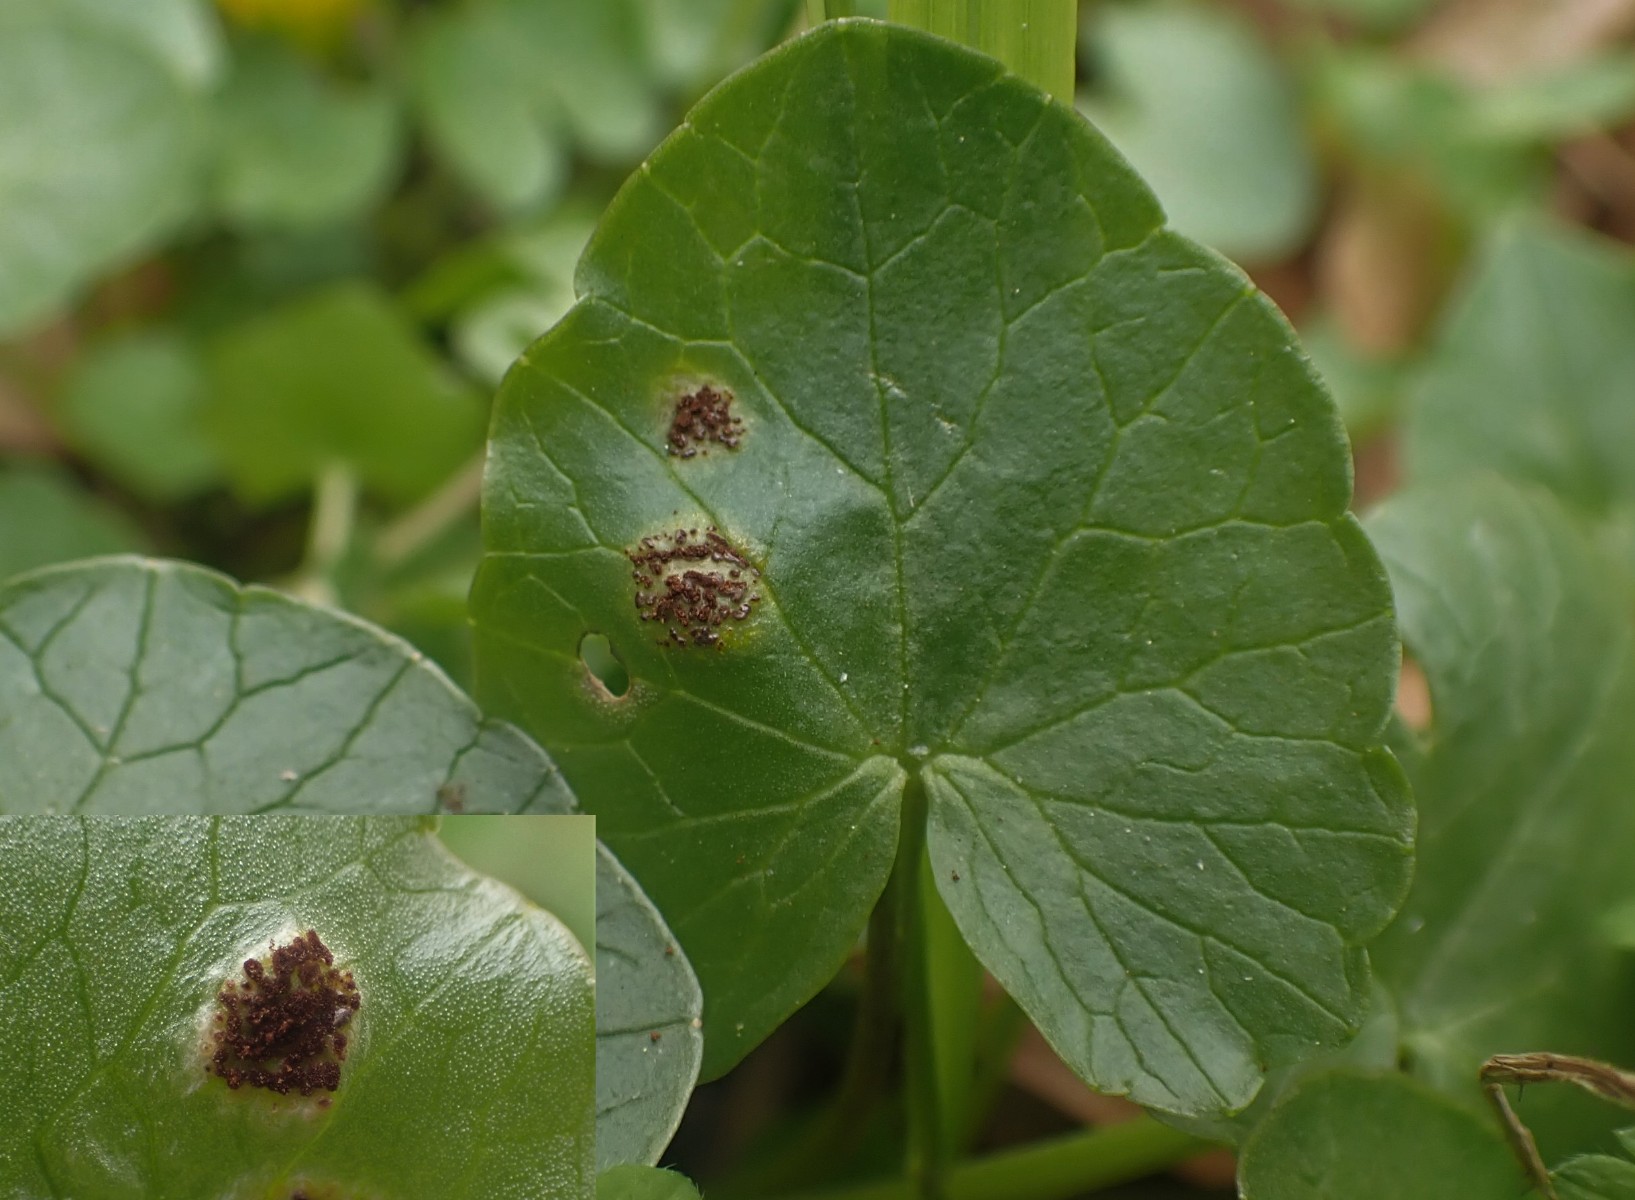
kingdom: Fungi
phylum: Basidiomycota
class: Pucciniomycetes
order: Pucciniales
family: Pucciniaceae
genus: Uromyces
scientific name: Uromyces ficariae
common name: vorterod-encellerust
